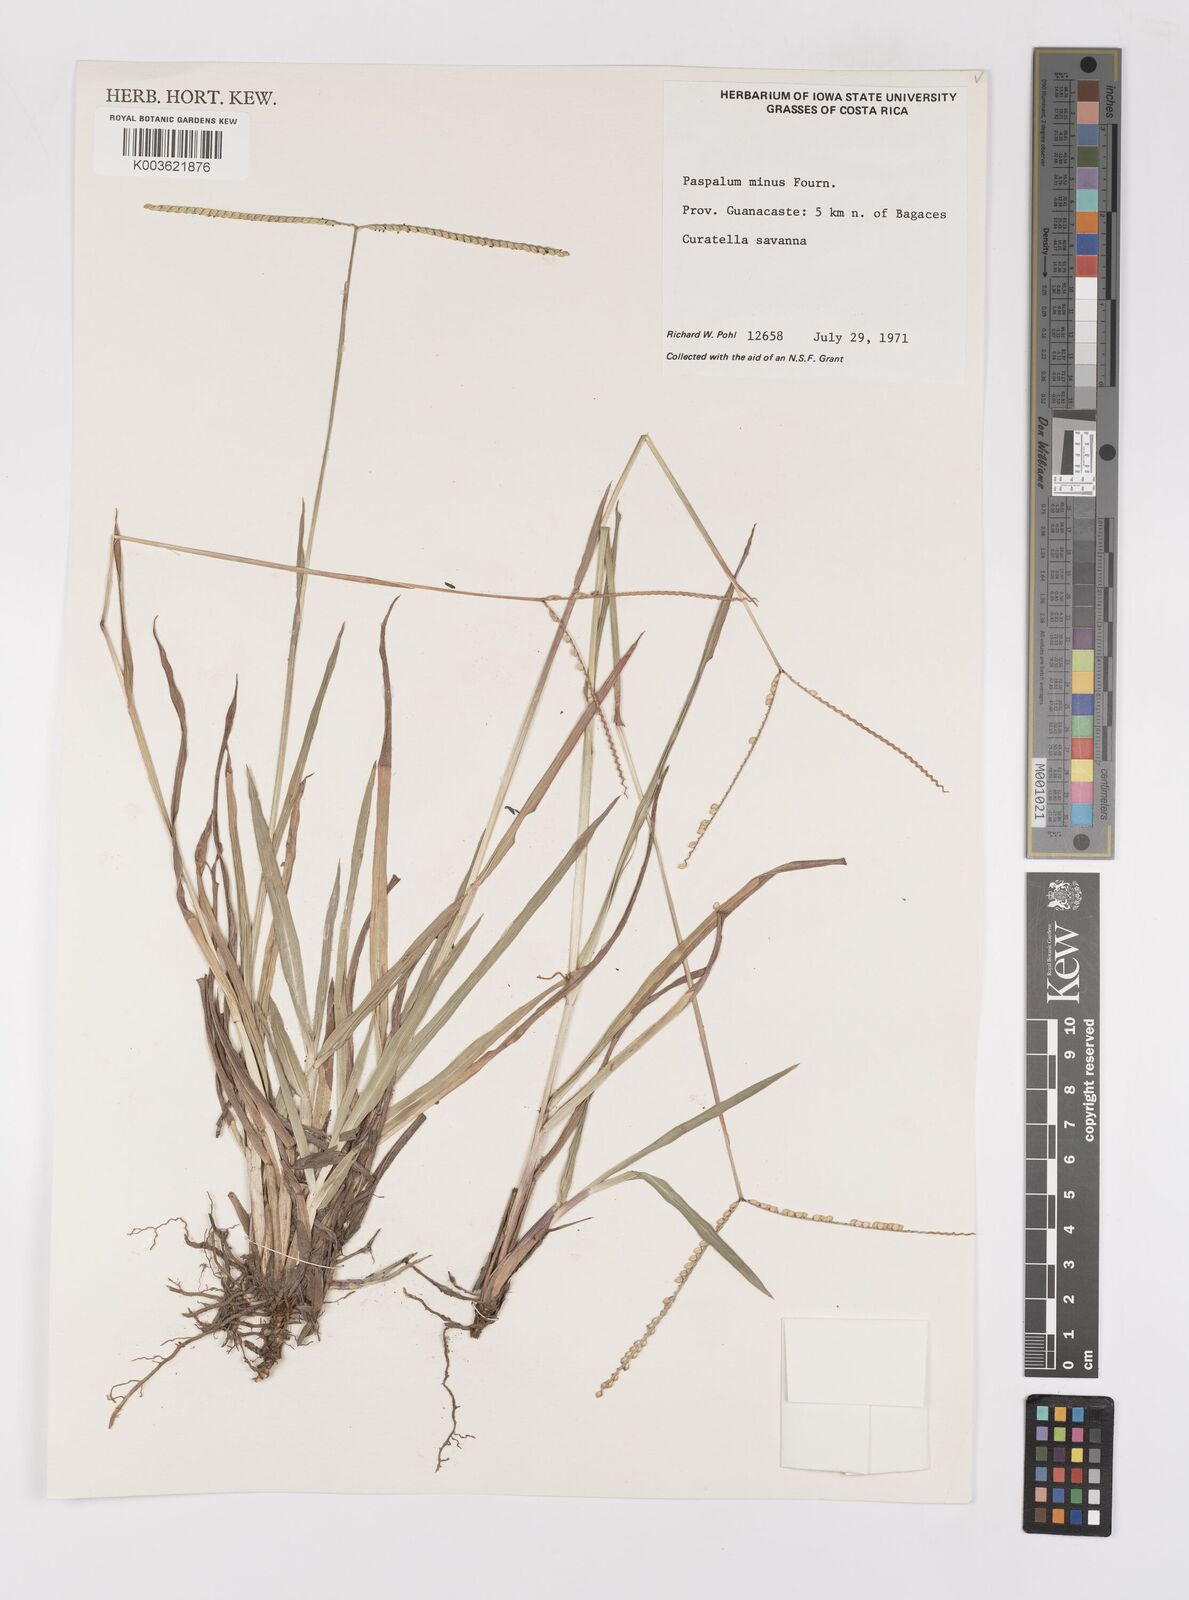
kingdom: Plantae
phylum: Tracheophyta
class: Liliopsida
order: Poales
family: Poaceae
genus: Paspalum
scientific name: Paspalum minus
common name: Matted paspalum
